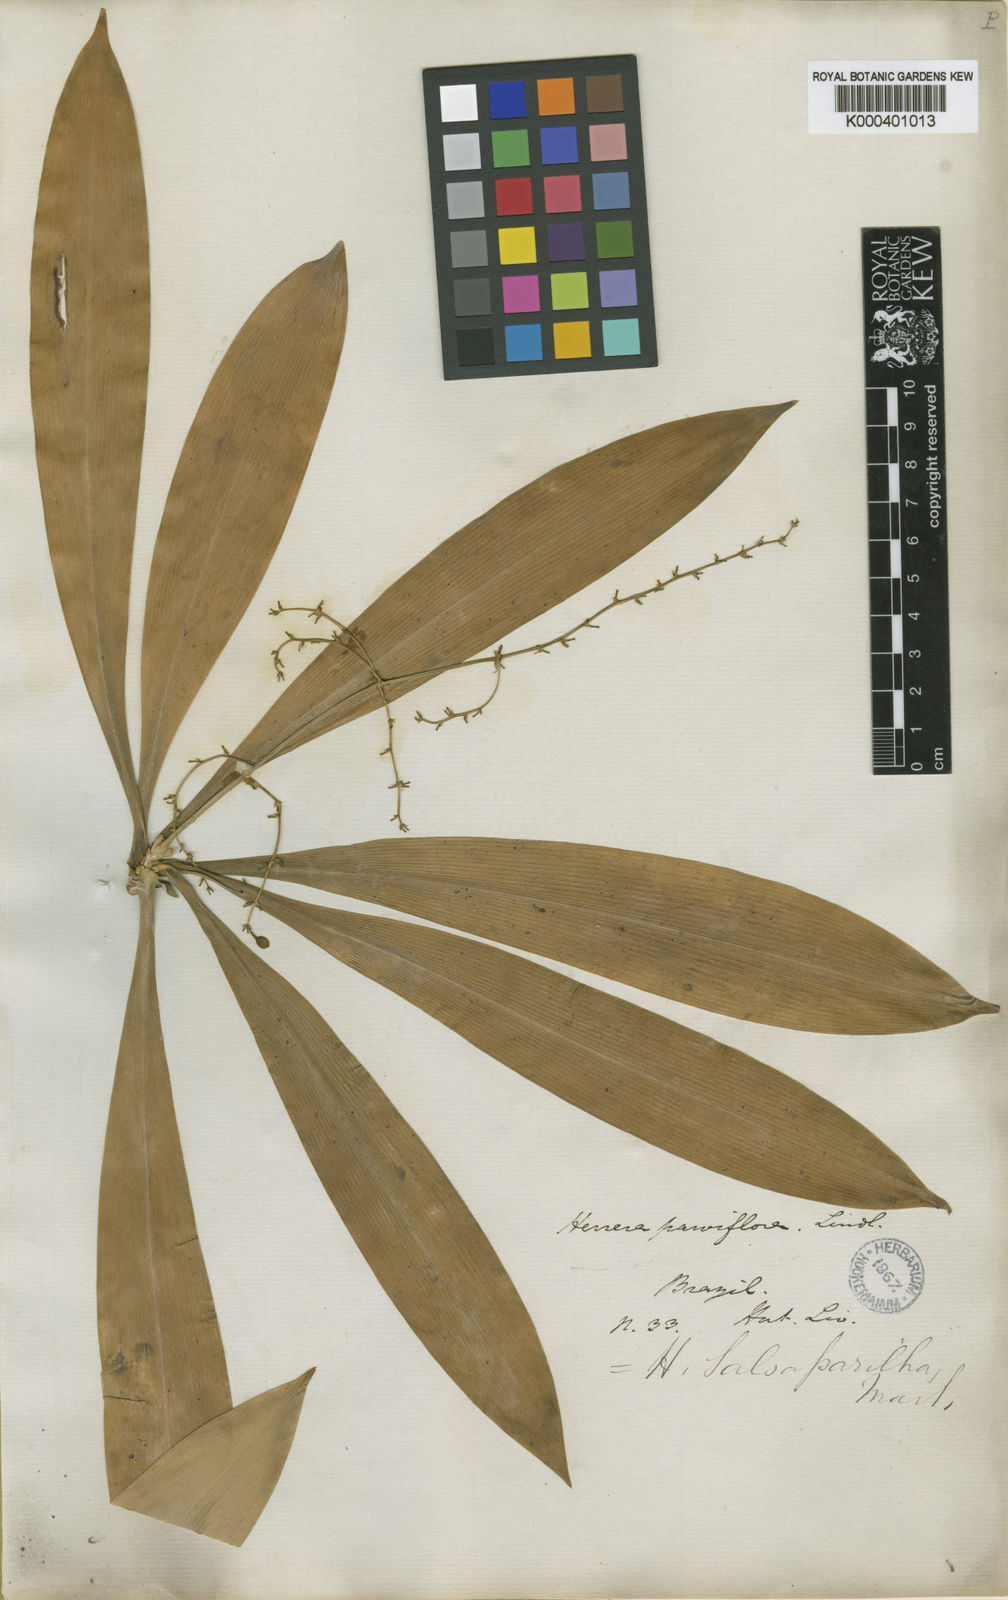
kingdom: Plantae
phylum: Tracheophyta
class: Liliopsida
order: Asparagales
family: Asparagaceae
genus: Herreria
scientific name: Herreria salsaparilha
